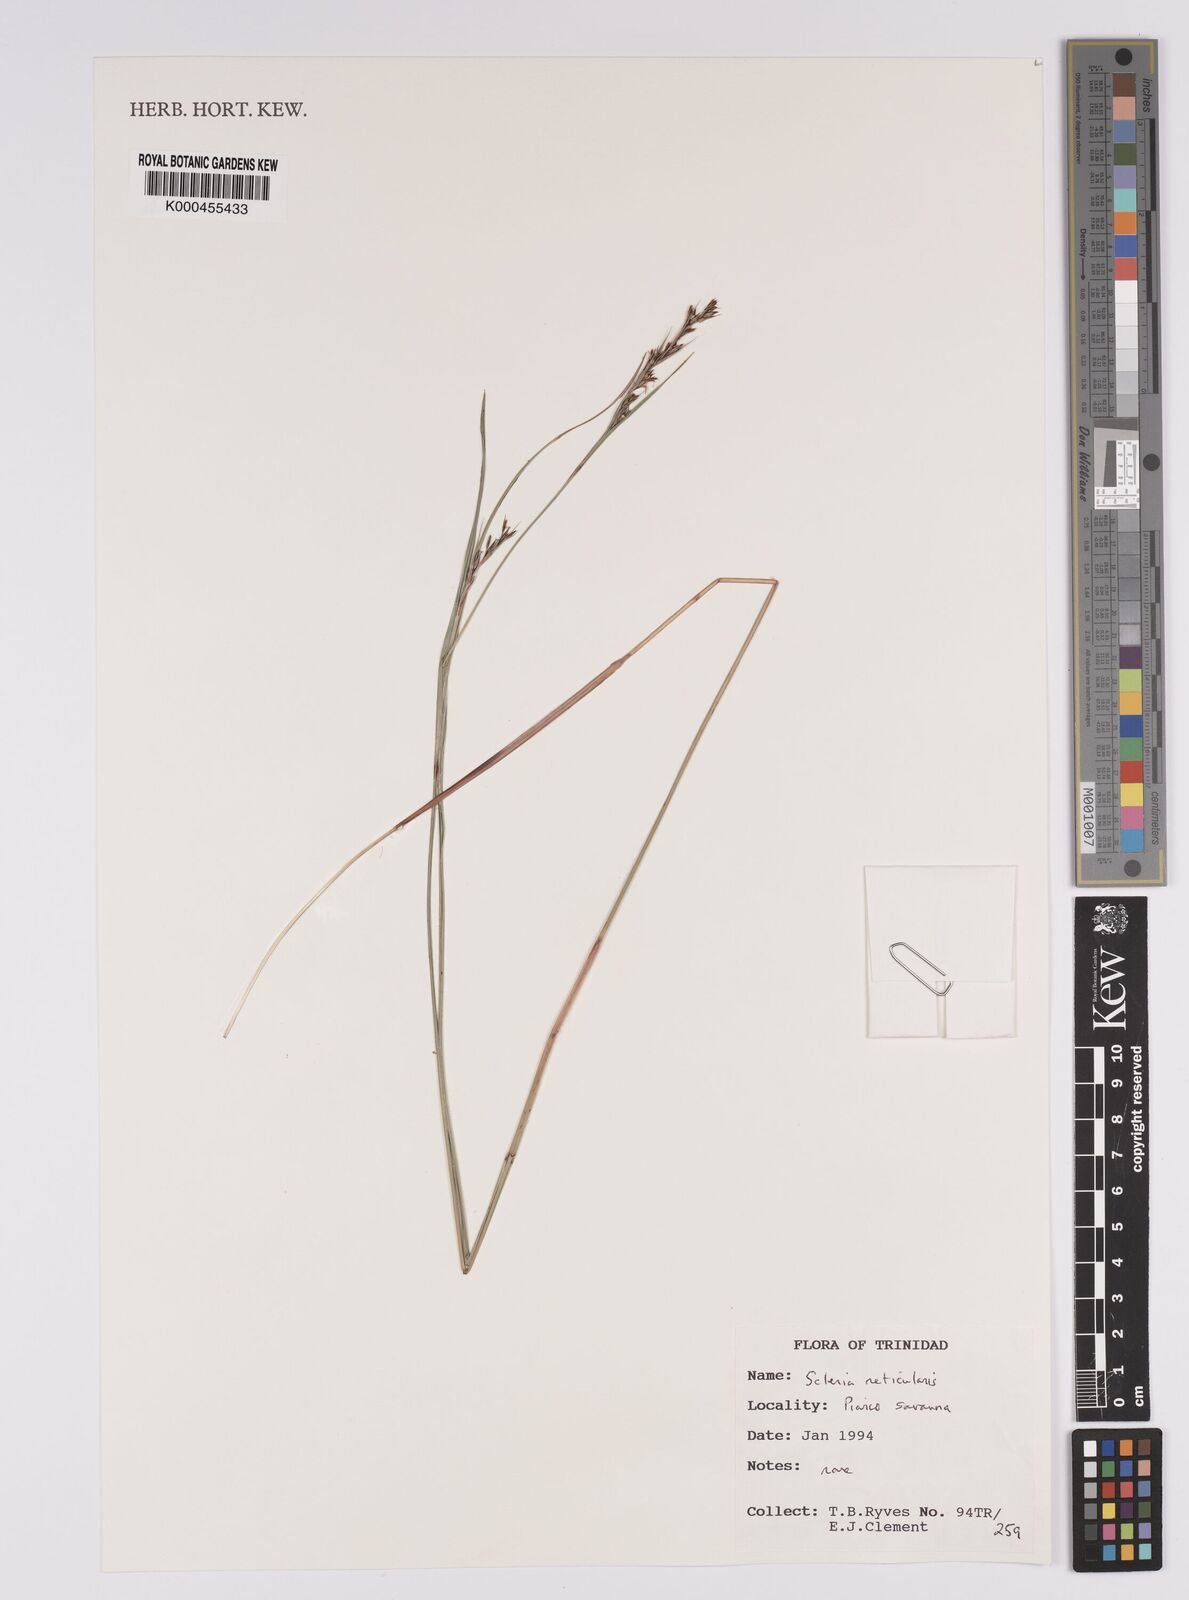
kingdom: Plantae
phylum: Tracheophyta
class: Liliopsida
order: Poales
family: Cyperaceae
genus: Scleria
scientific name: Scleria
